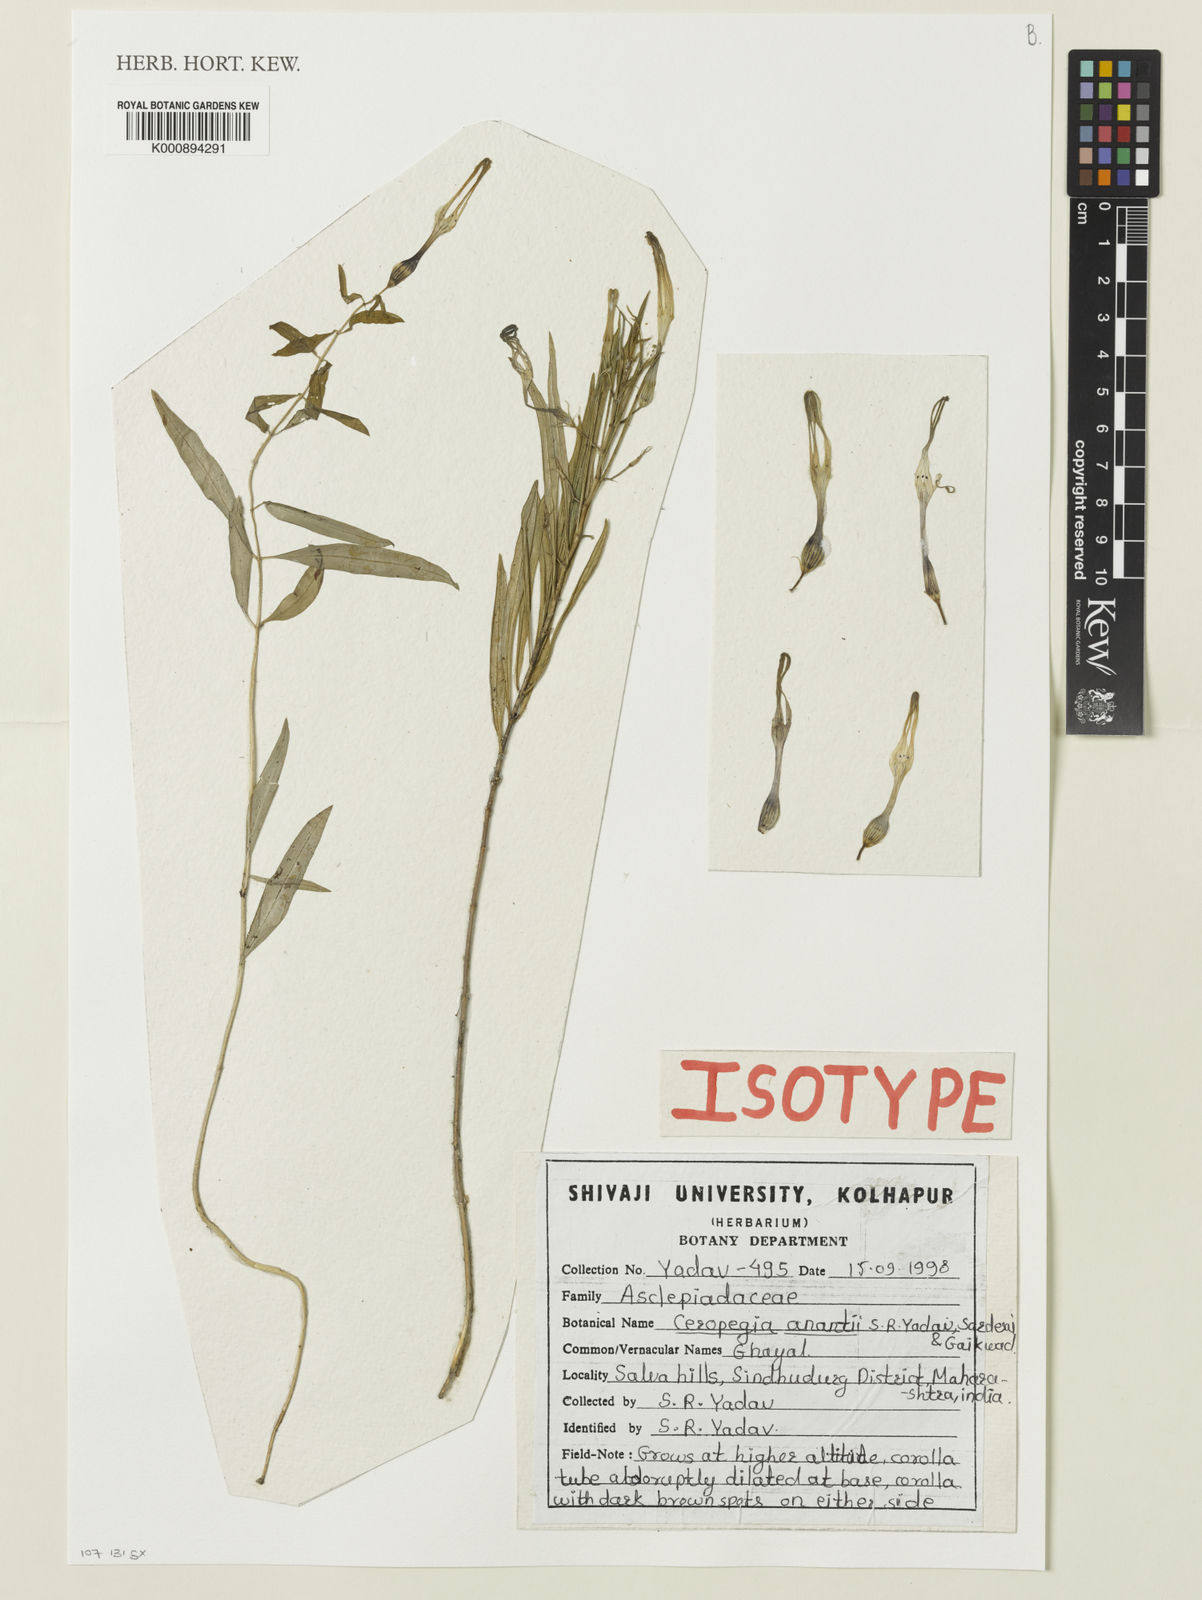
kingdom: Plantae
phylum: Tracheophyta
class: Magnoliopsida
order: Gentianales
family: Apocynaceae
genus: Ceropegia
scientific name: Ceropegia attenuata
